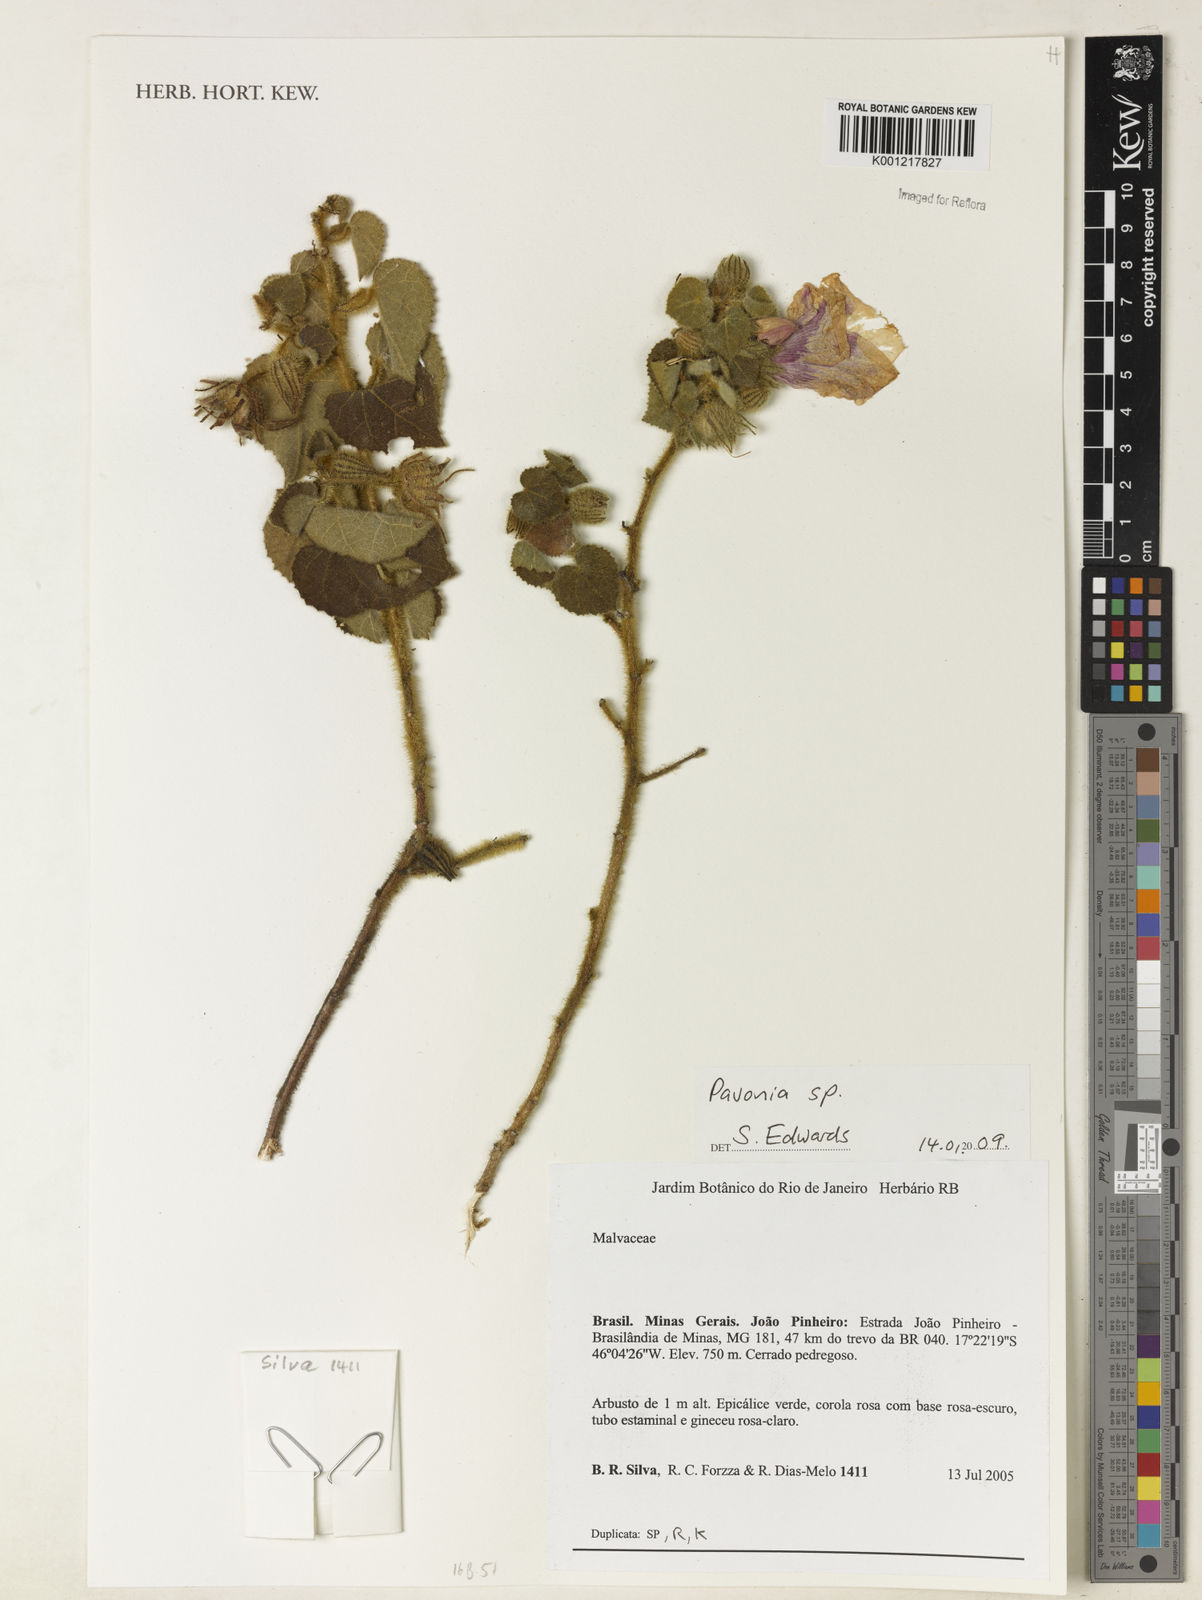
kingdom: Plantae
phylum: Tracheophyta
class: Magnoliopsida
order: Malvales
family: Malvaceae
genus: Pavonia
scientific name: Pavonia
